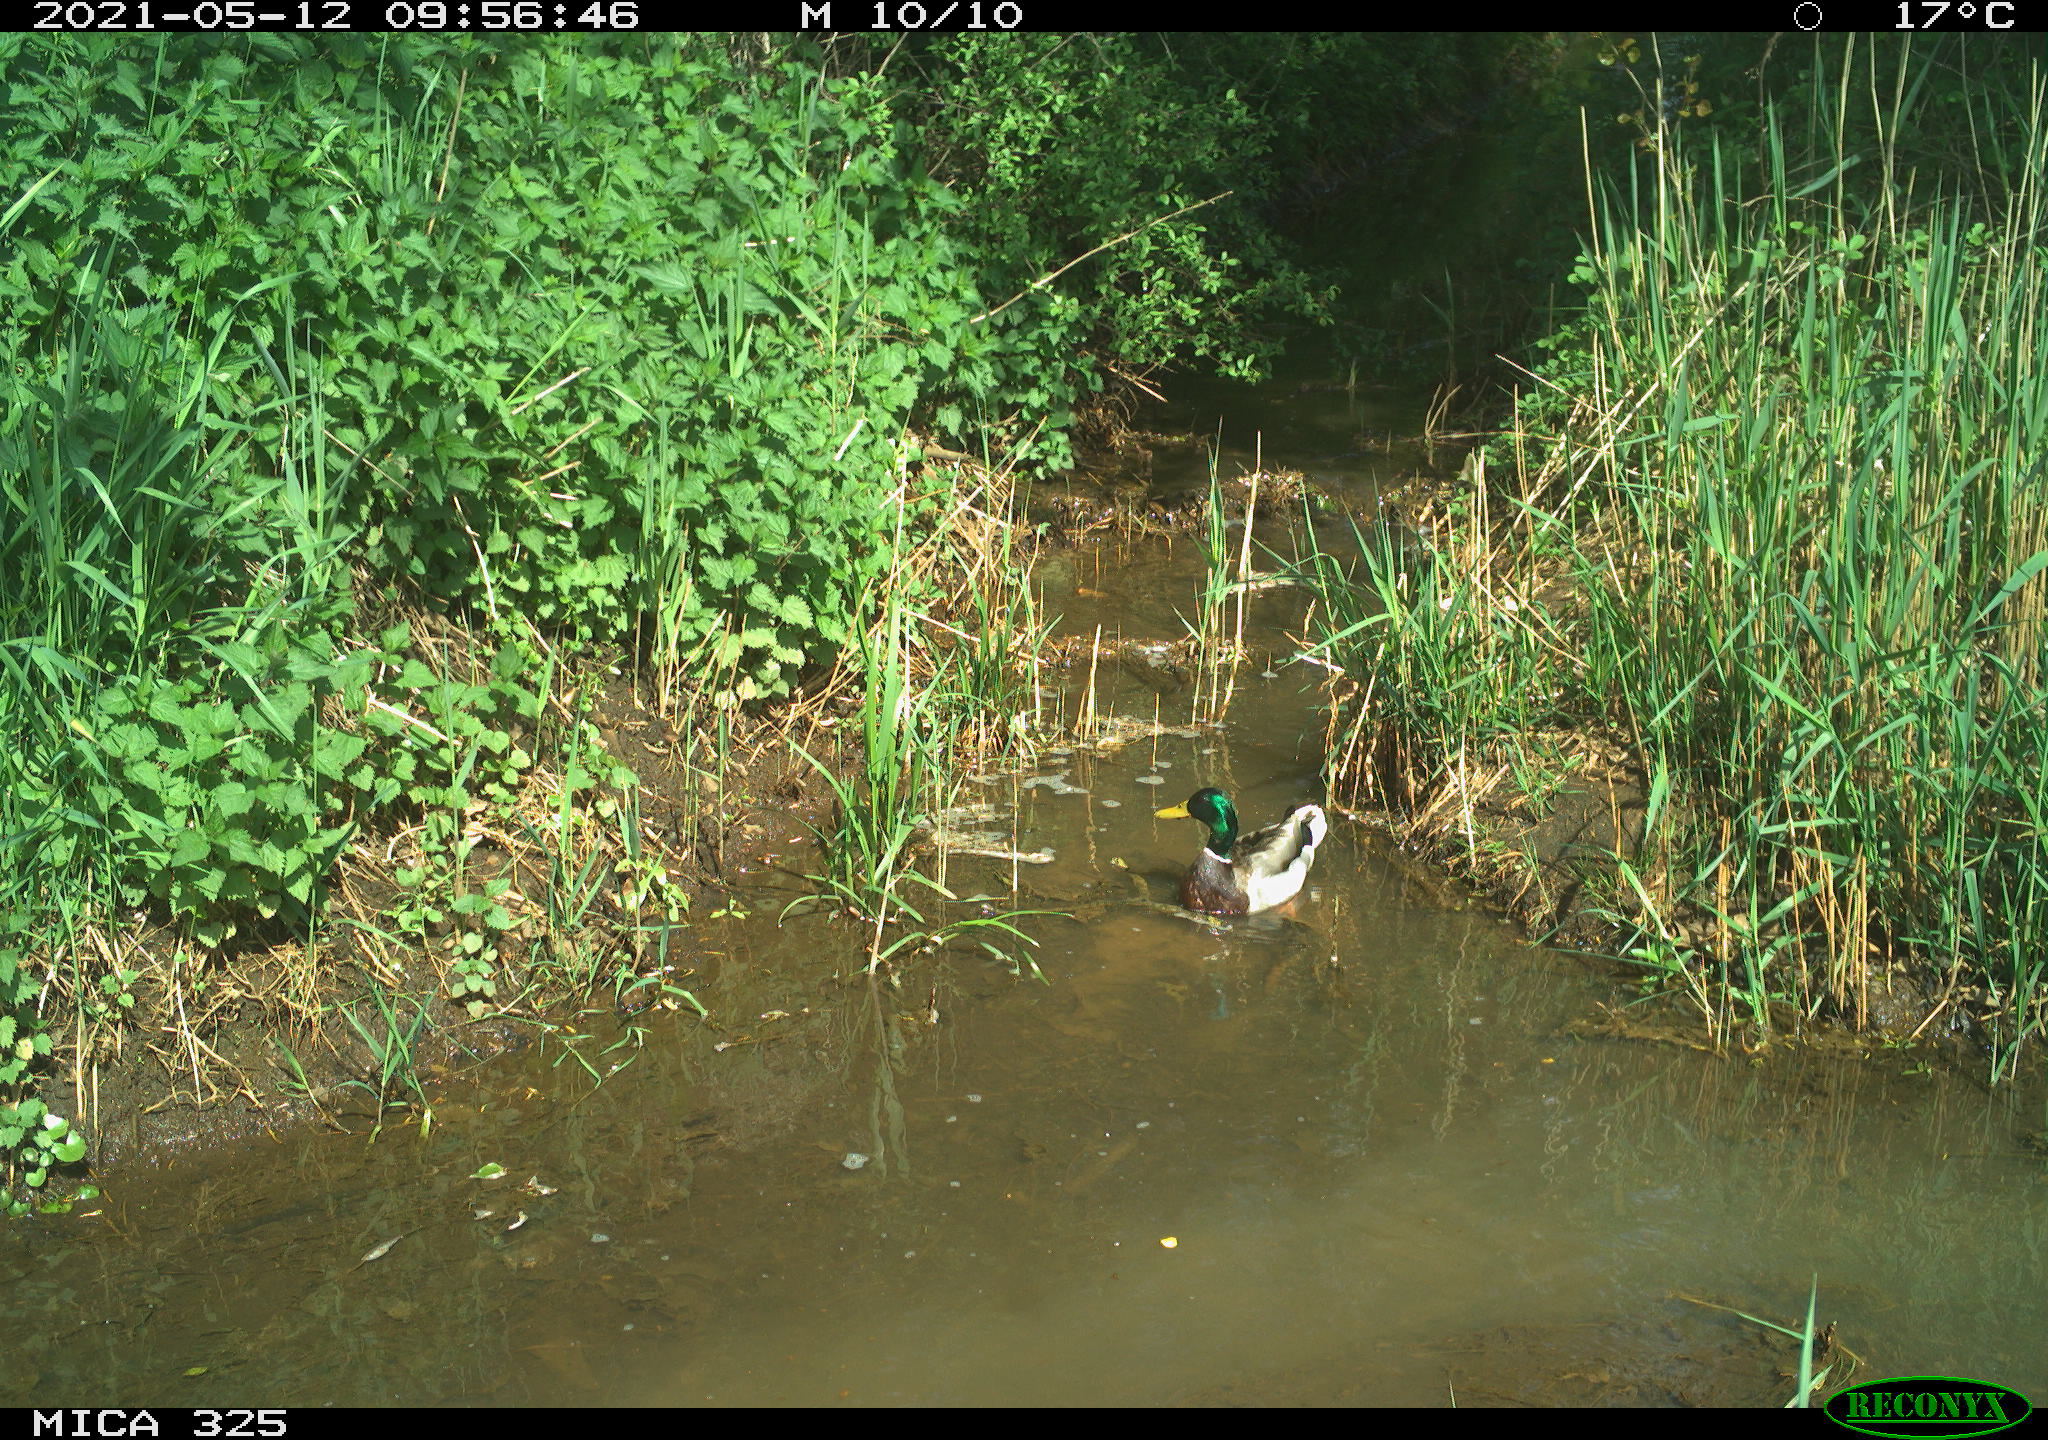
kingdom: Animalia
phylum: Chordata
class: Aves
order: Anseriformes
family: Anatidae
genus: Anas
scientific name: Anas platyrhynchos
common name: Mallard
